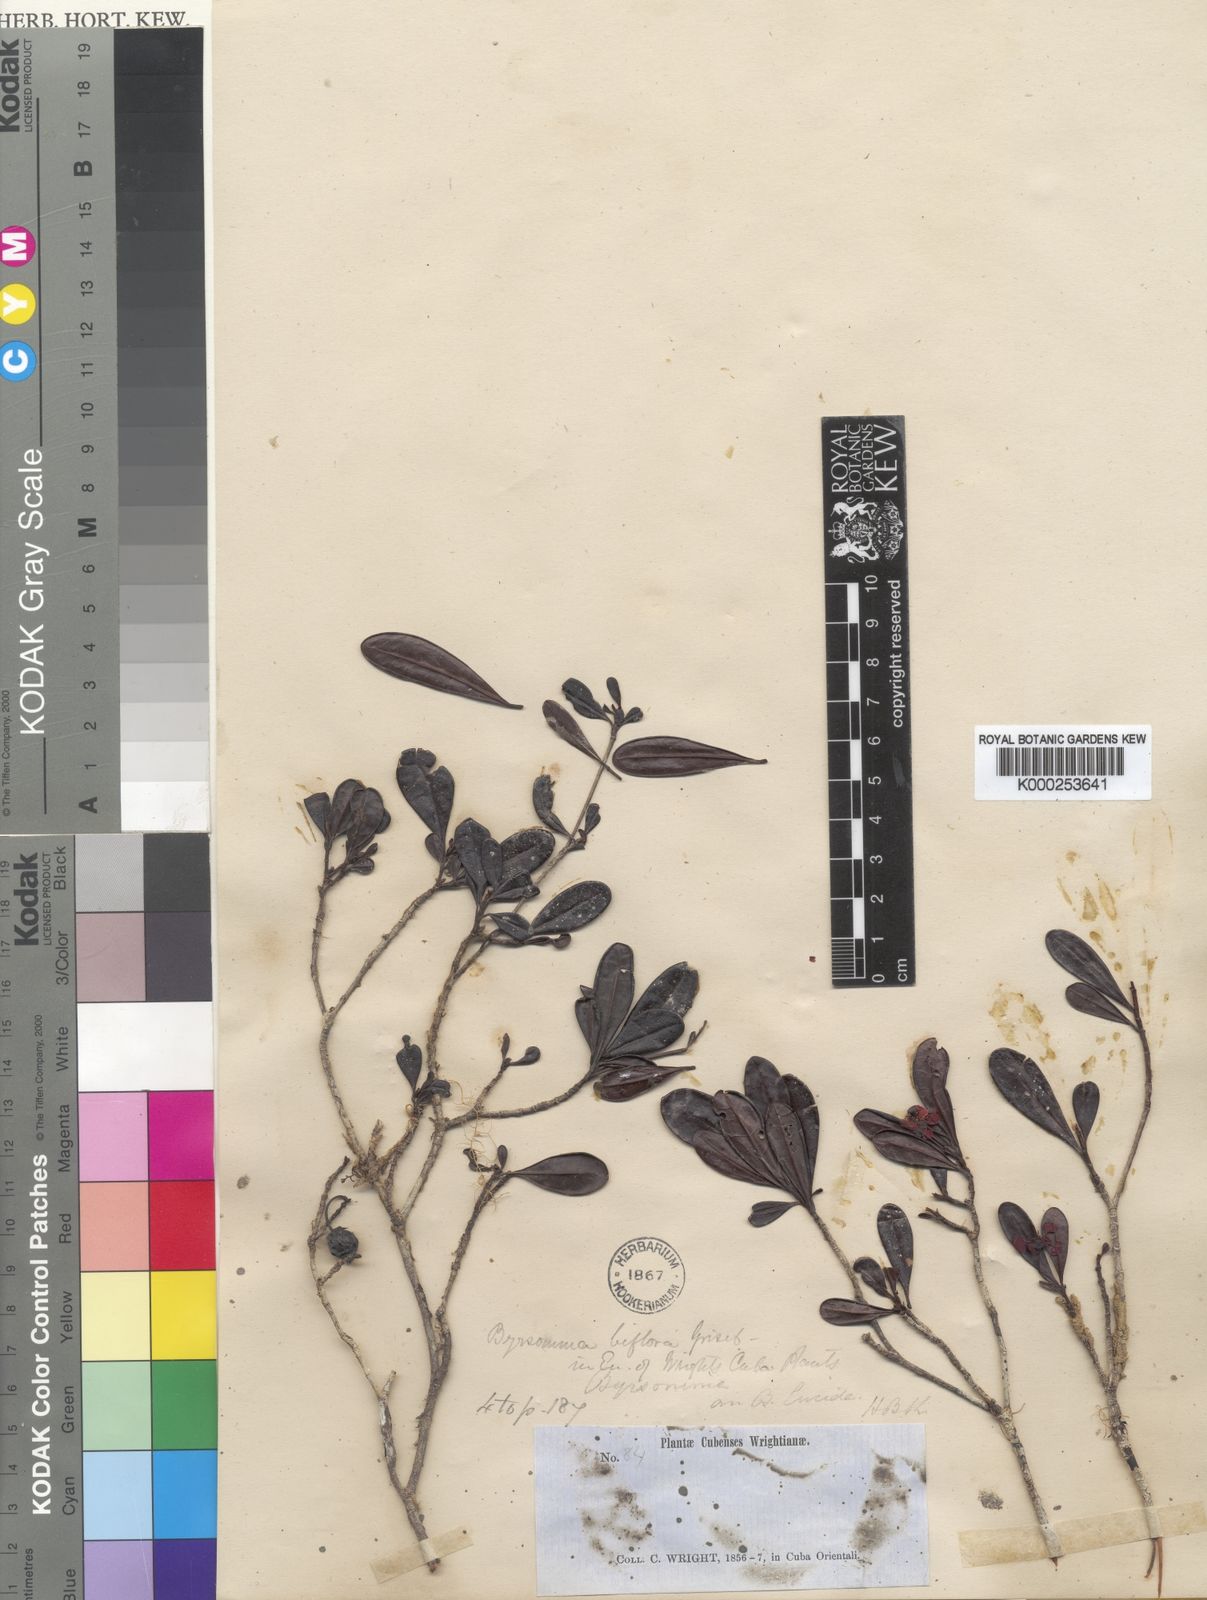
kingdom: Plantae
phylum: Tracheophyta
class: Magnoliopsida
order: Malpighiales
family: Malpighiaceae
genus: Byrsonima
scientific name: Byrsonima lucida
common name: Clam-cherry
